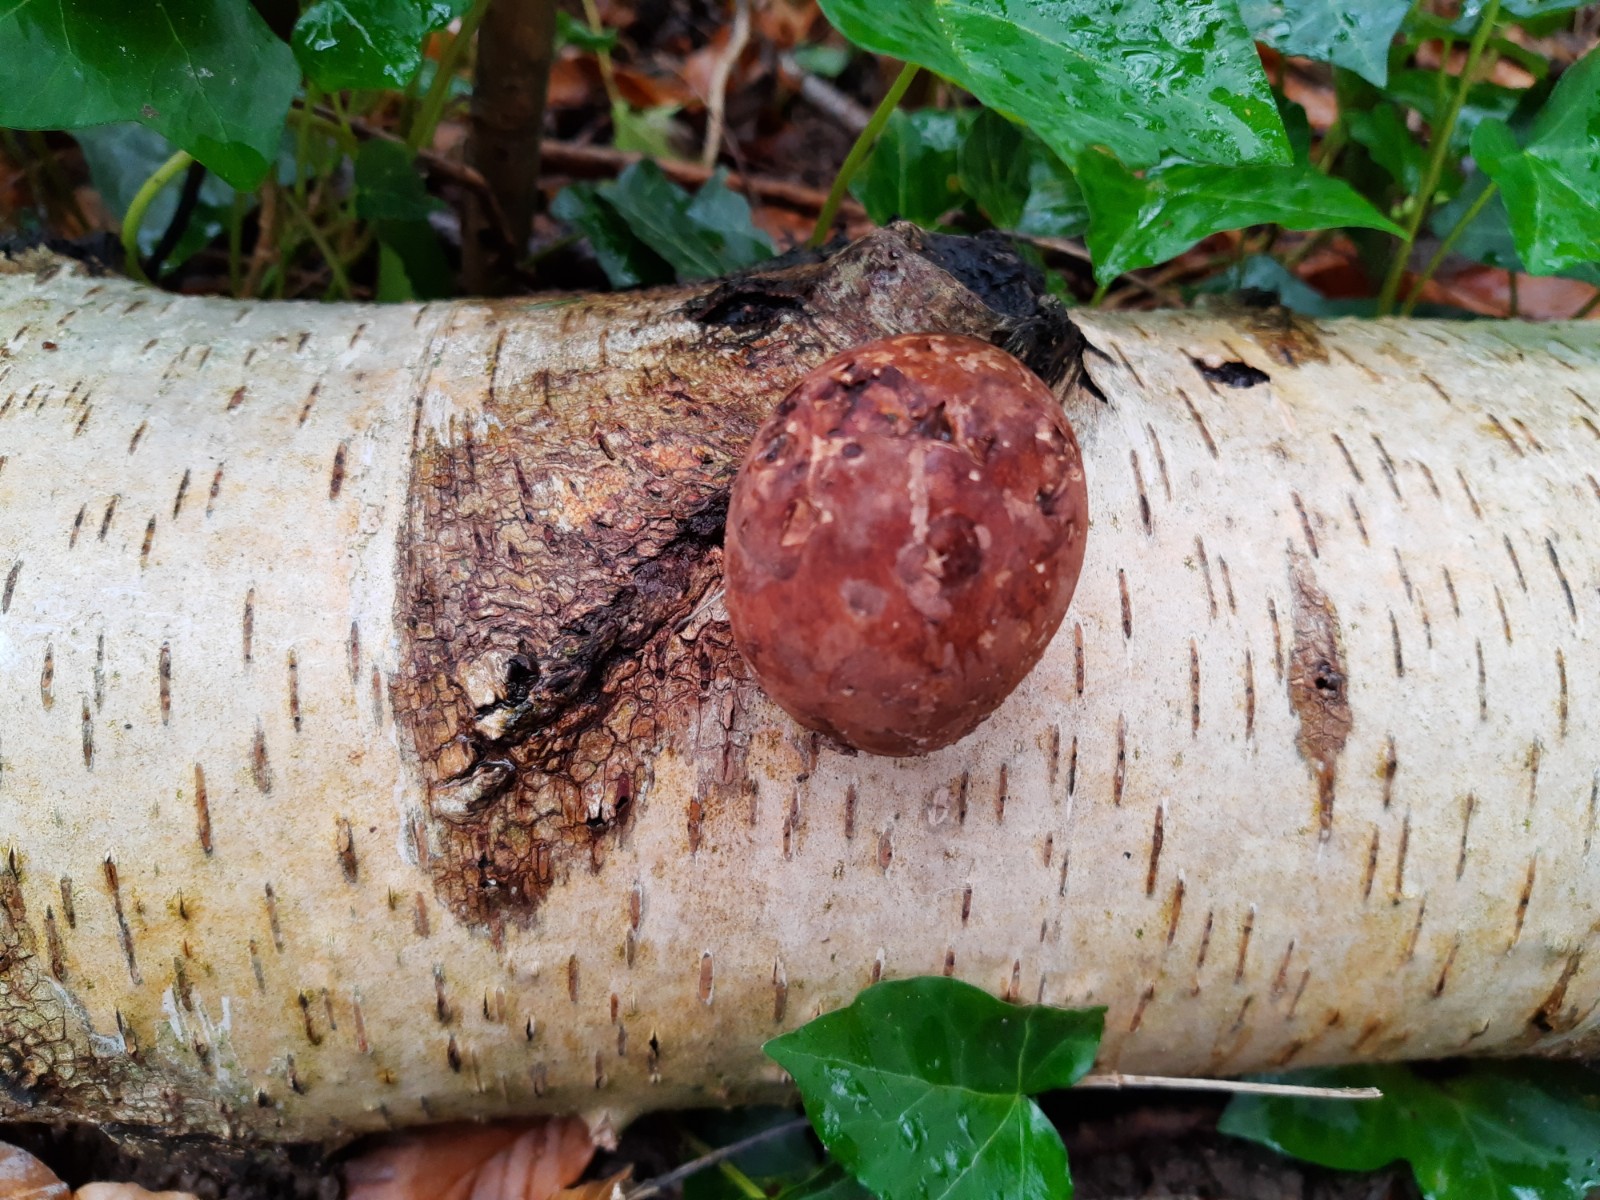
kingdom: Fungi
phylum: Basidiomycota
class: Agaricomycetes
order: Polyporales
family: Fomitopsidaceae
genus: Fomitopsis
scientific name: Fomitopsis betulina
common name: birkeporesvamp
